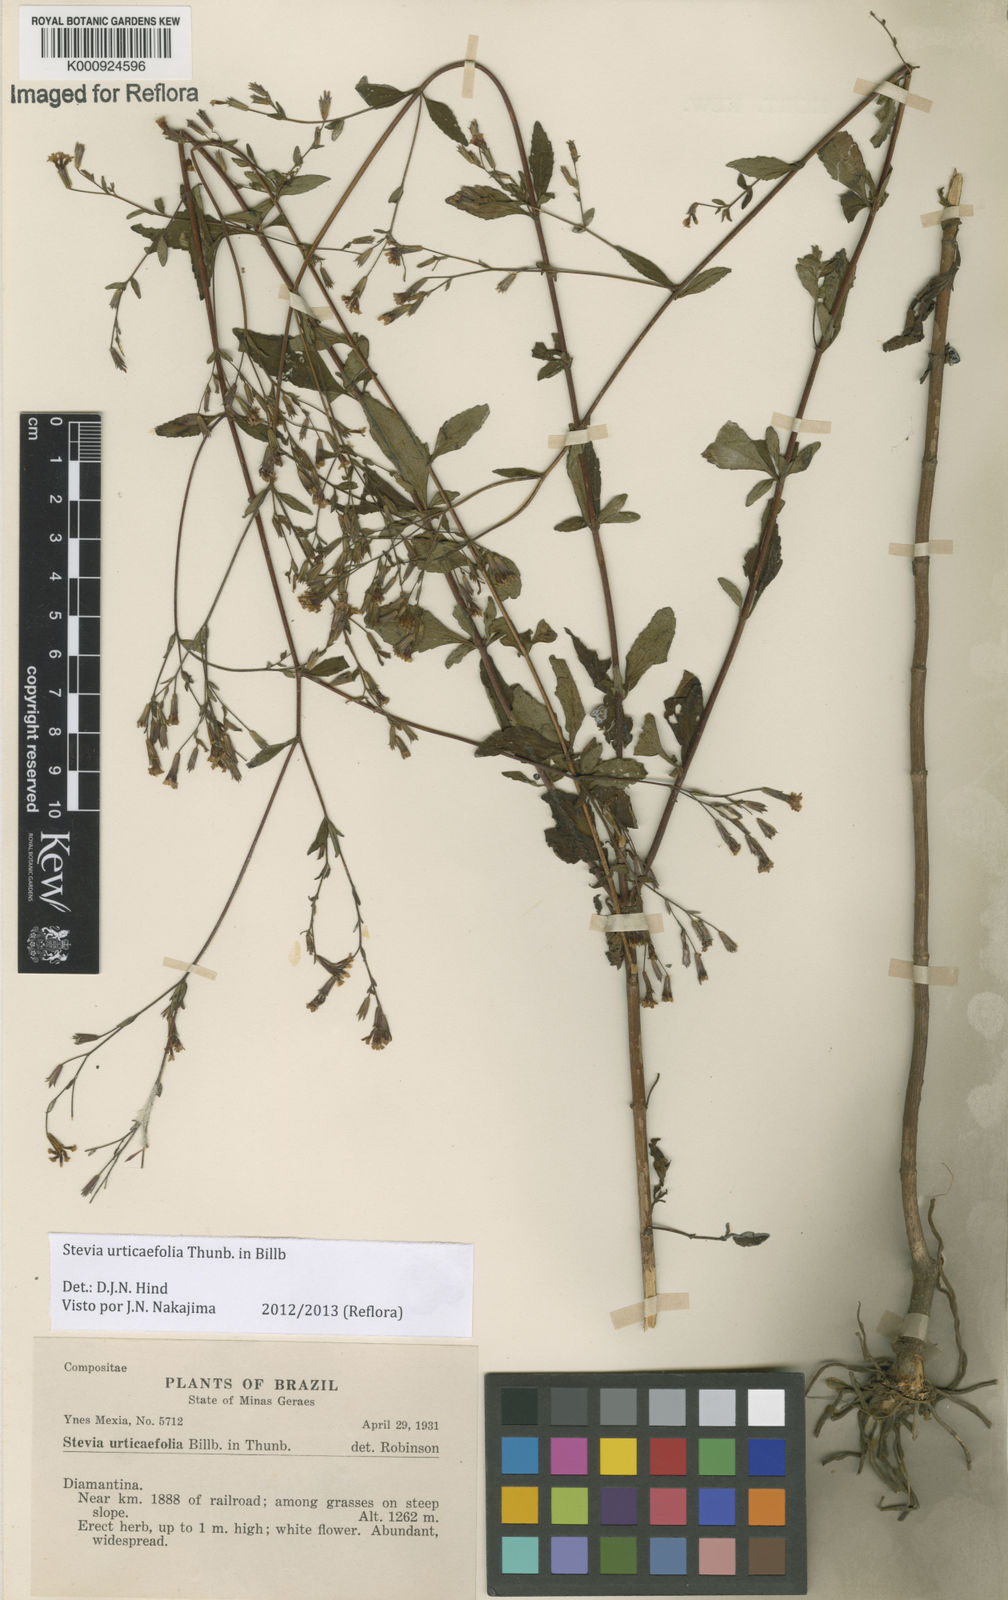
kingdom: Plantae
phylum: Tracheophyta
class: Magnoliopsida
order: Asterales
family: Asteraceae
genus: Stevia
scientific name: Stevia urticifolia
